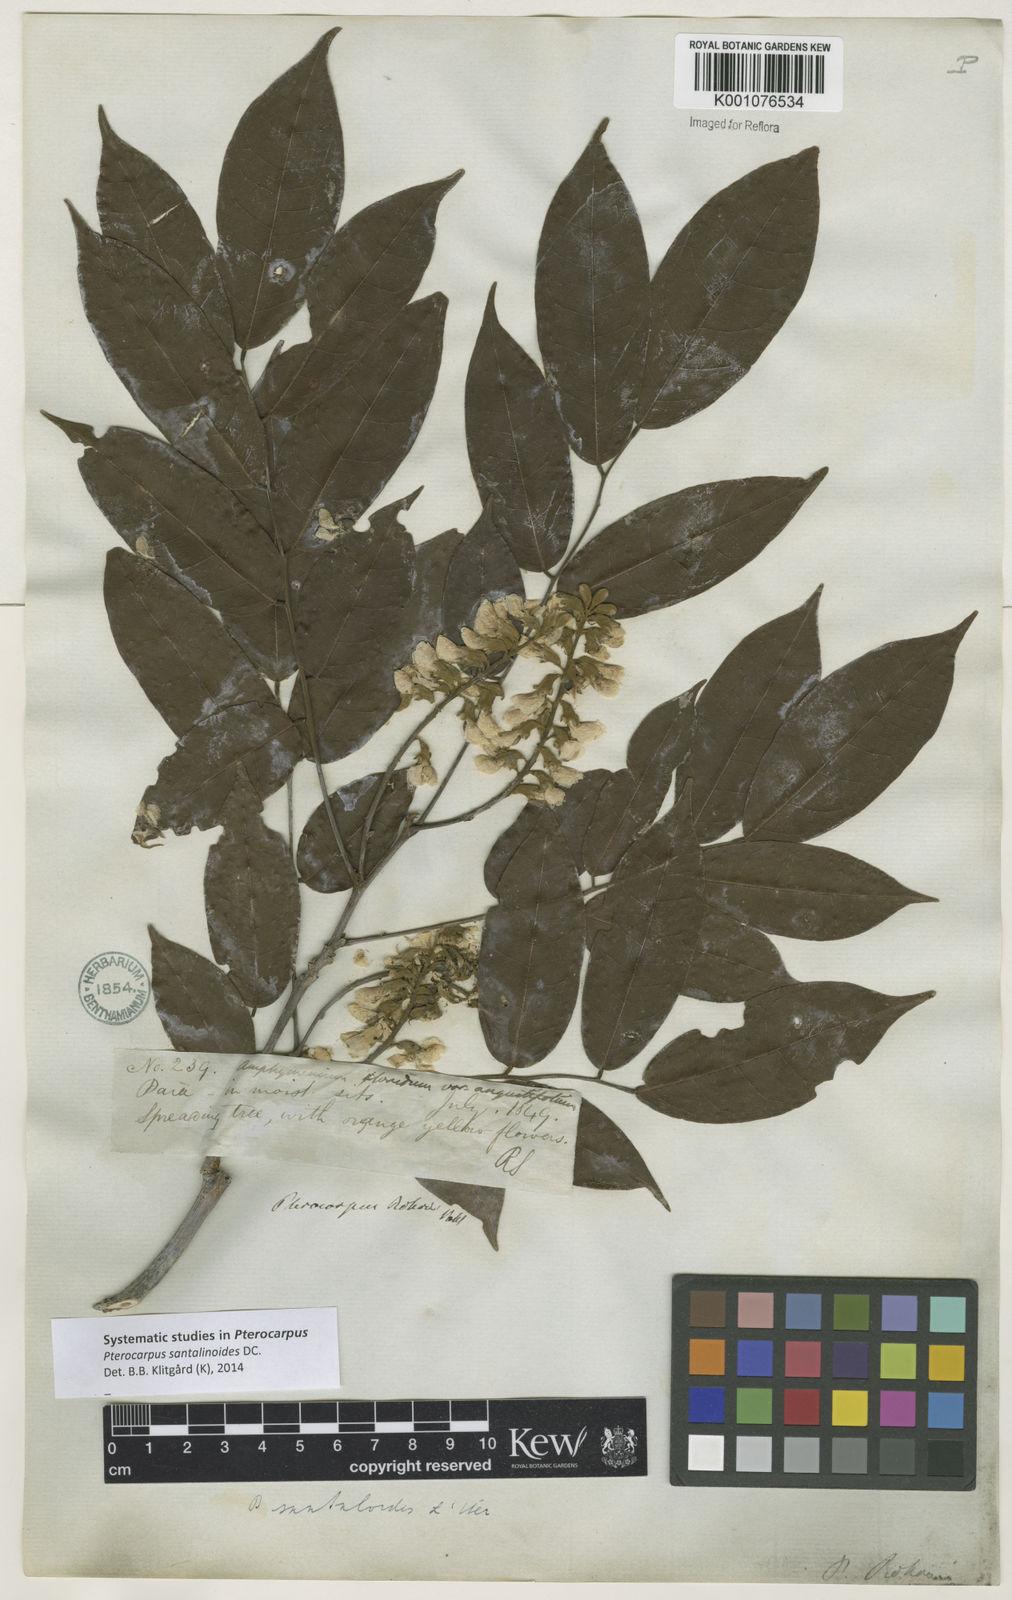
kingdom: Plantae
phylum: Tracheophyta
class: Magnoliopsida
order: Fabales
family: Fabaceae
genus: Pterocarpus
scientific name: Pterocarpus santalinoides
